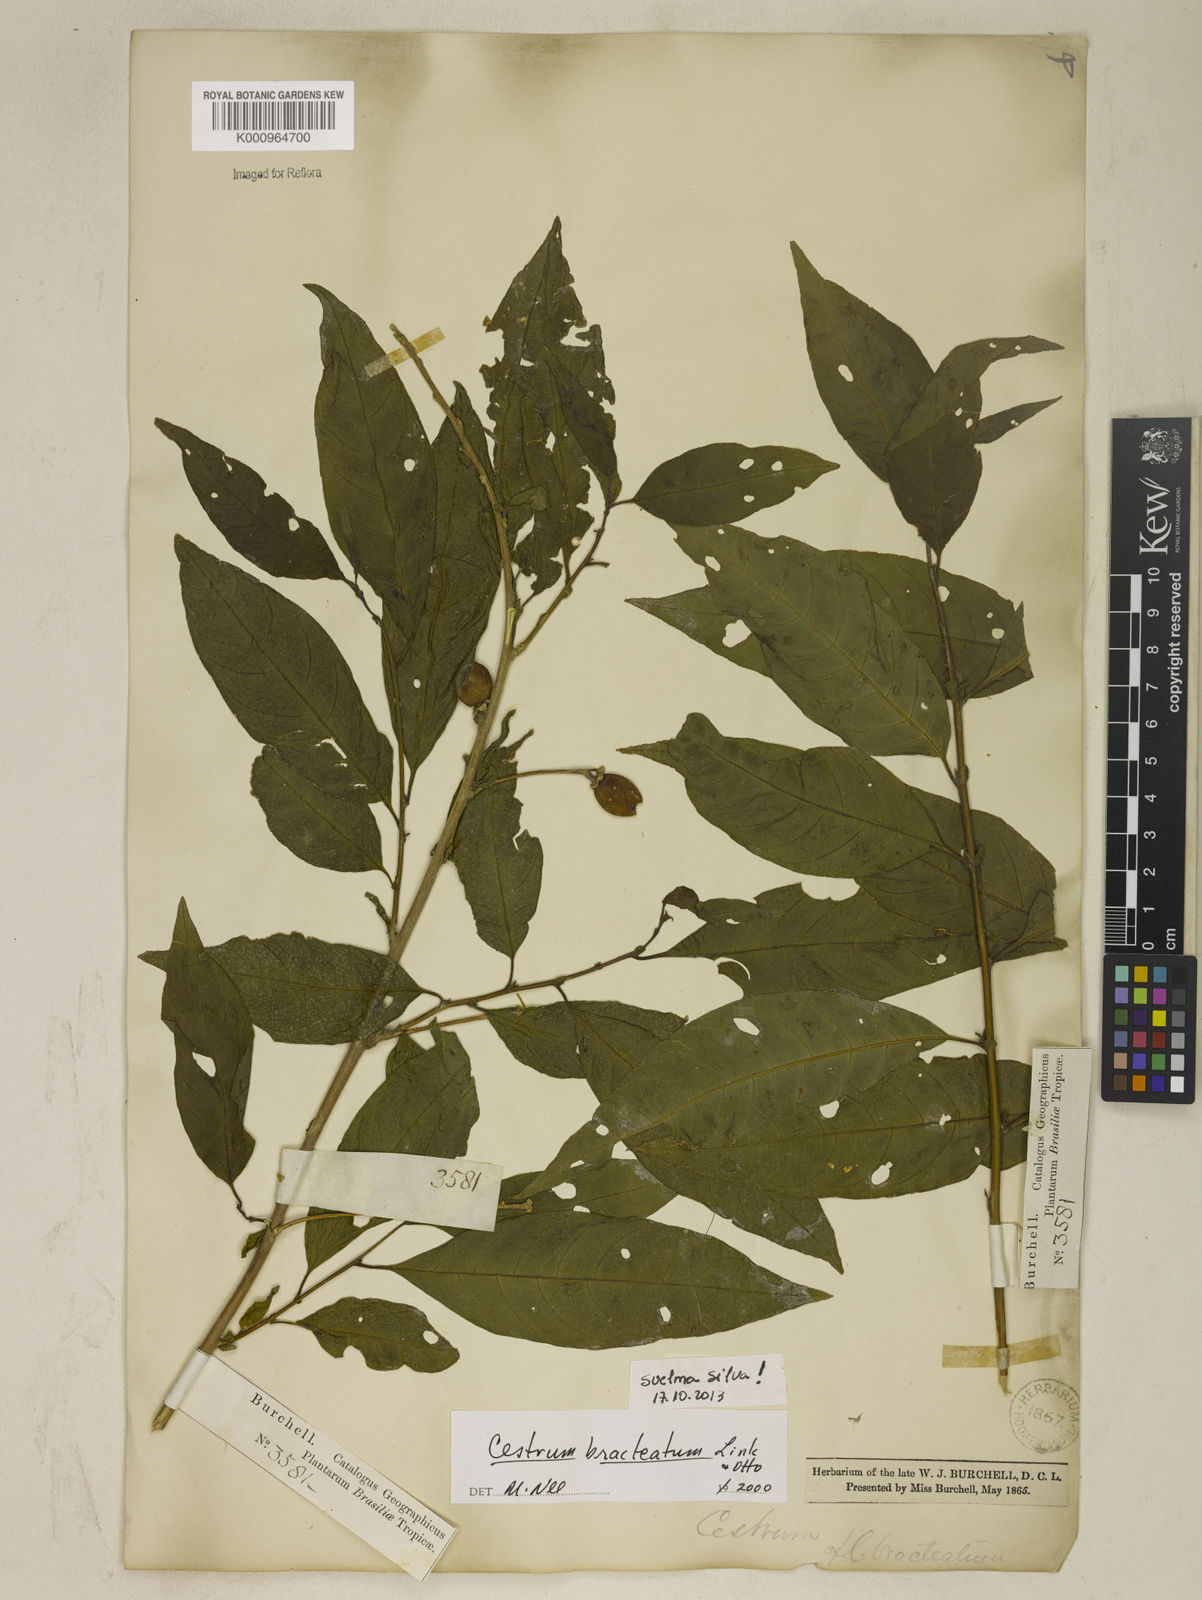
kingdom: Plantae
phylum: Tracheophyta
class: Magnoliopsida
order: Solanales
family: Solanaceae
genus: Cestrum
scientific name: Cestrum bracteatum
